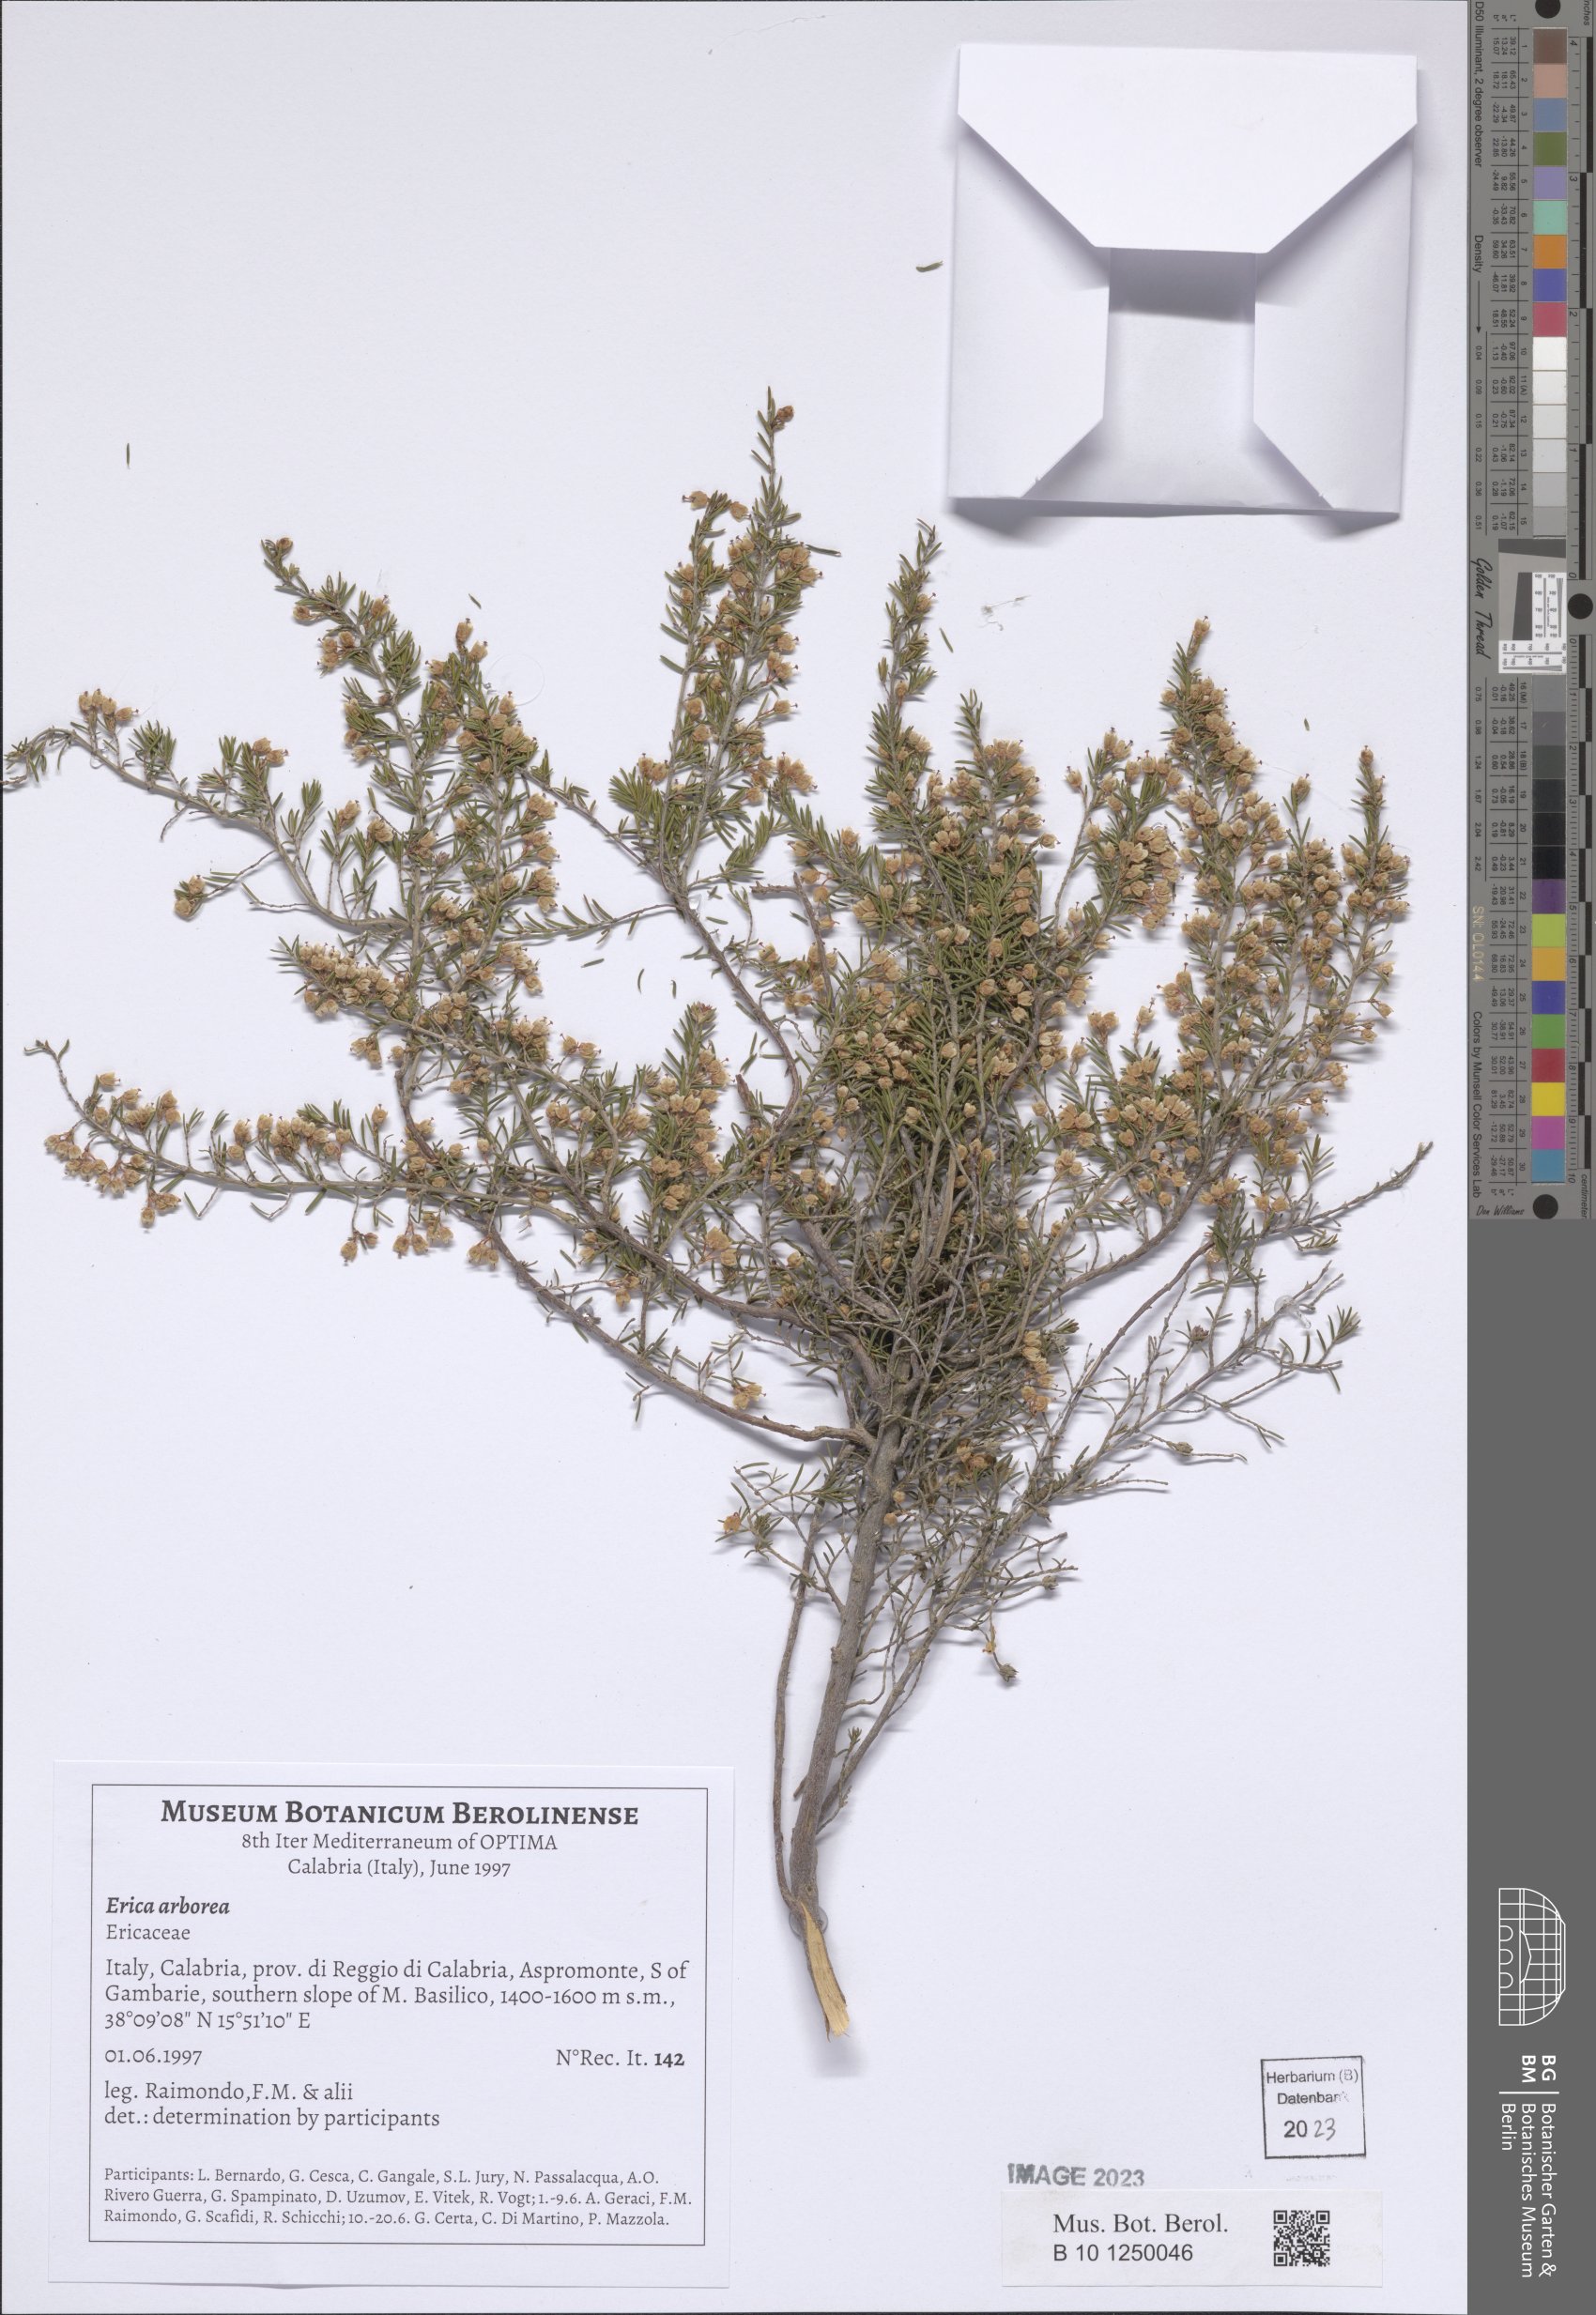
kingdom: Plantae
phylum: Tracheophyta
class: Magnoliopsida
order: Ericales
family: Ericaceae
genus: Erica
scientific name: Erica arborea
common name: Tree heath
